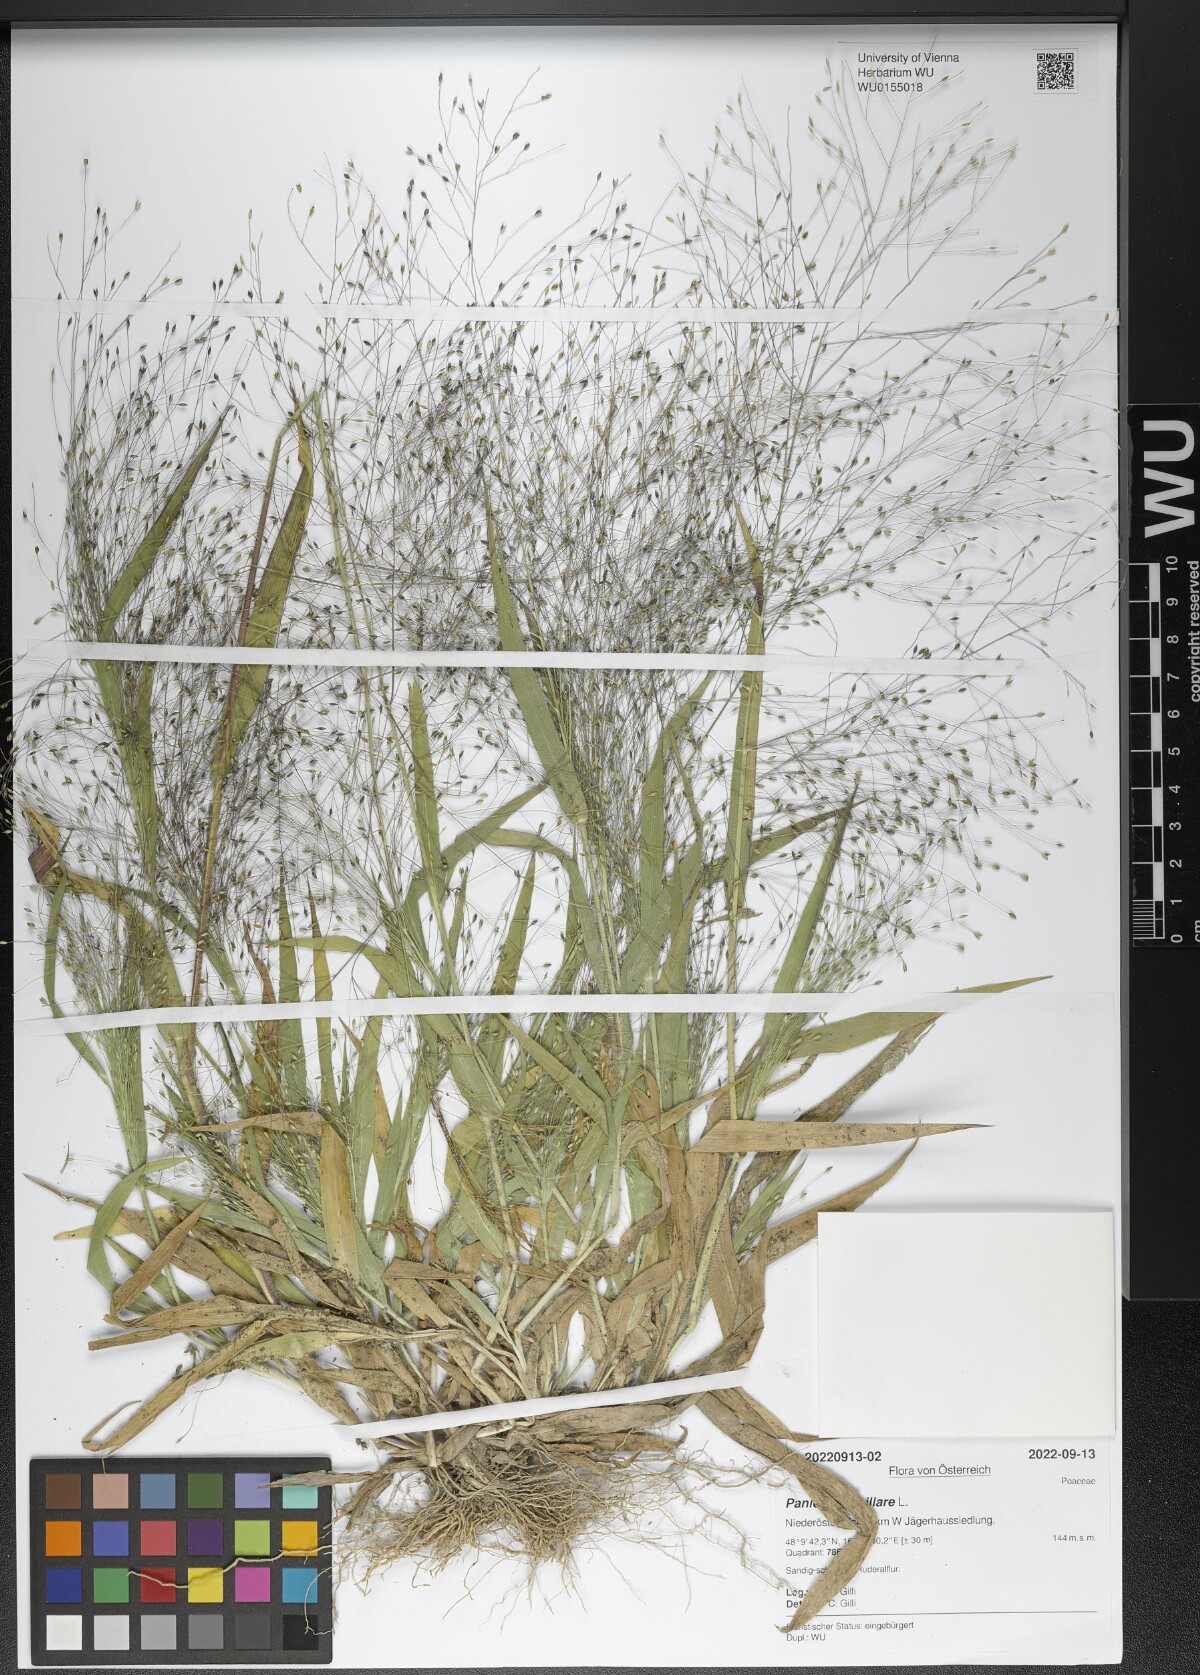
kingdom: Plantae
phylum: Tracheophyta
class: Liliopsida
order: Poales
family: Poaceae
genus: Panicum
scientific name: Panicum capillare
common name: Witch-grass
